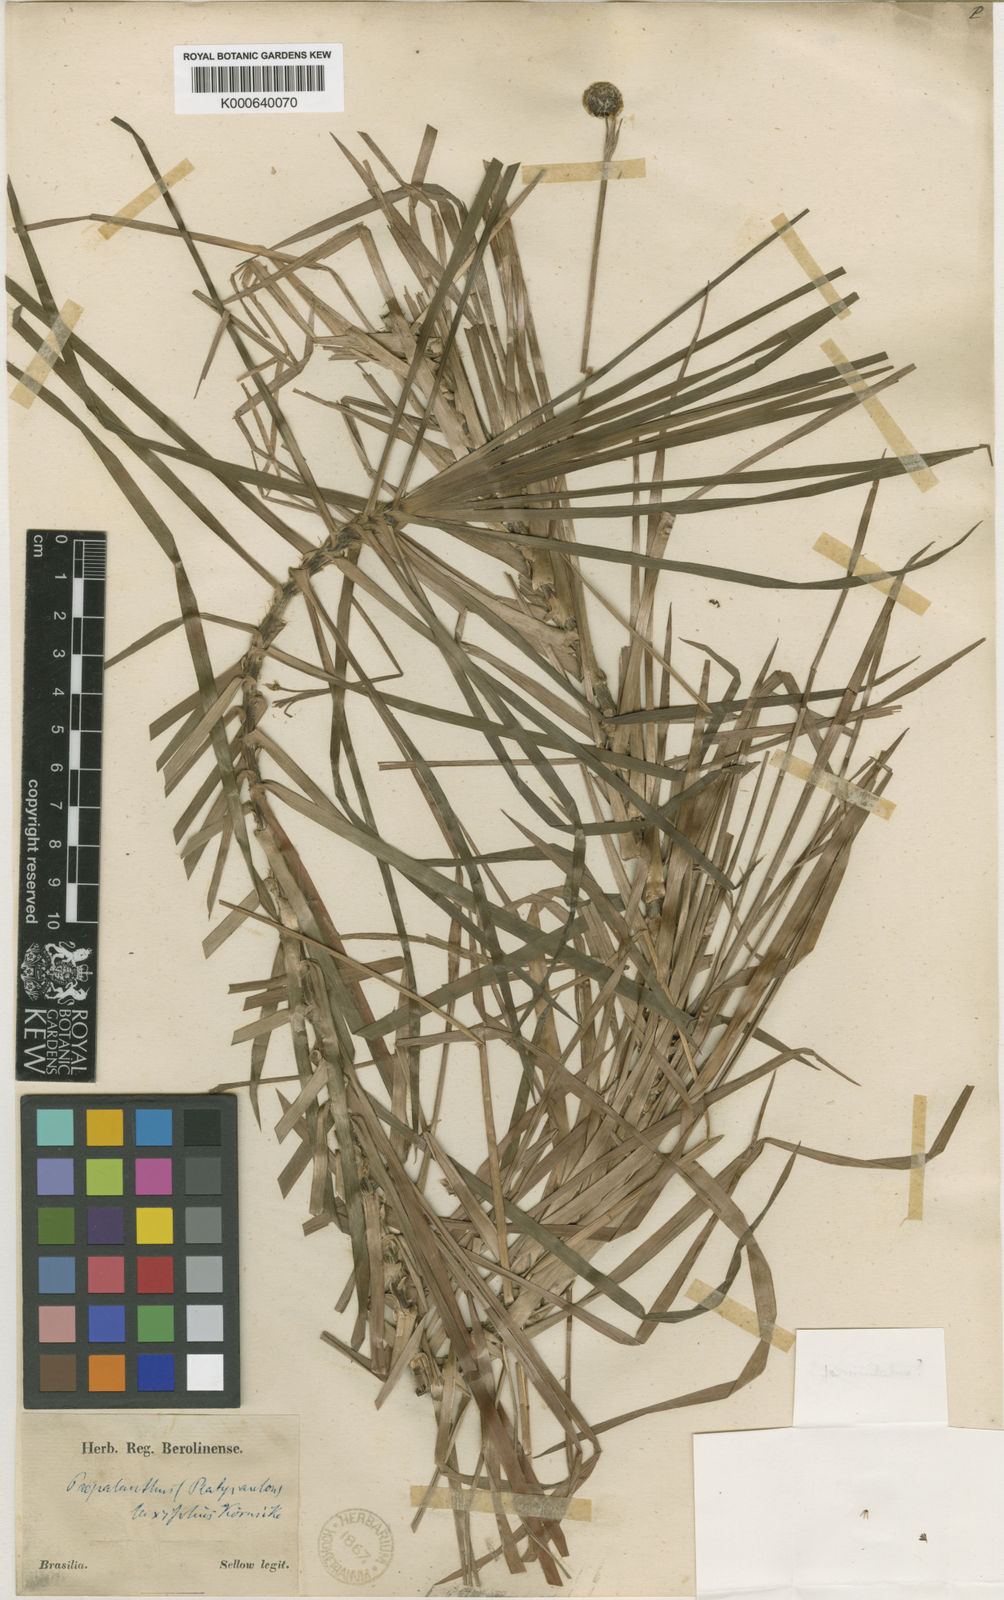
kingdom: Plantae
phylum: Tracheophyta
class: Liliopsida
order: Poales
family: Eriocaulaceae
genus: Paepalanthus
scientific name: Paepalanthus
